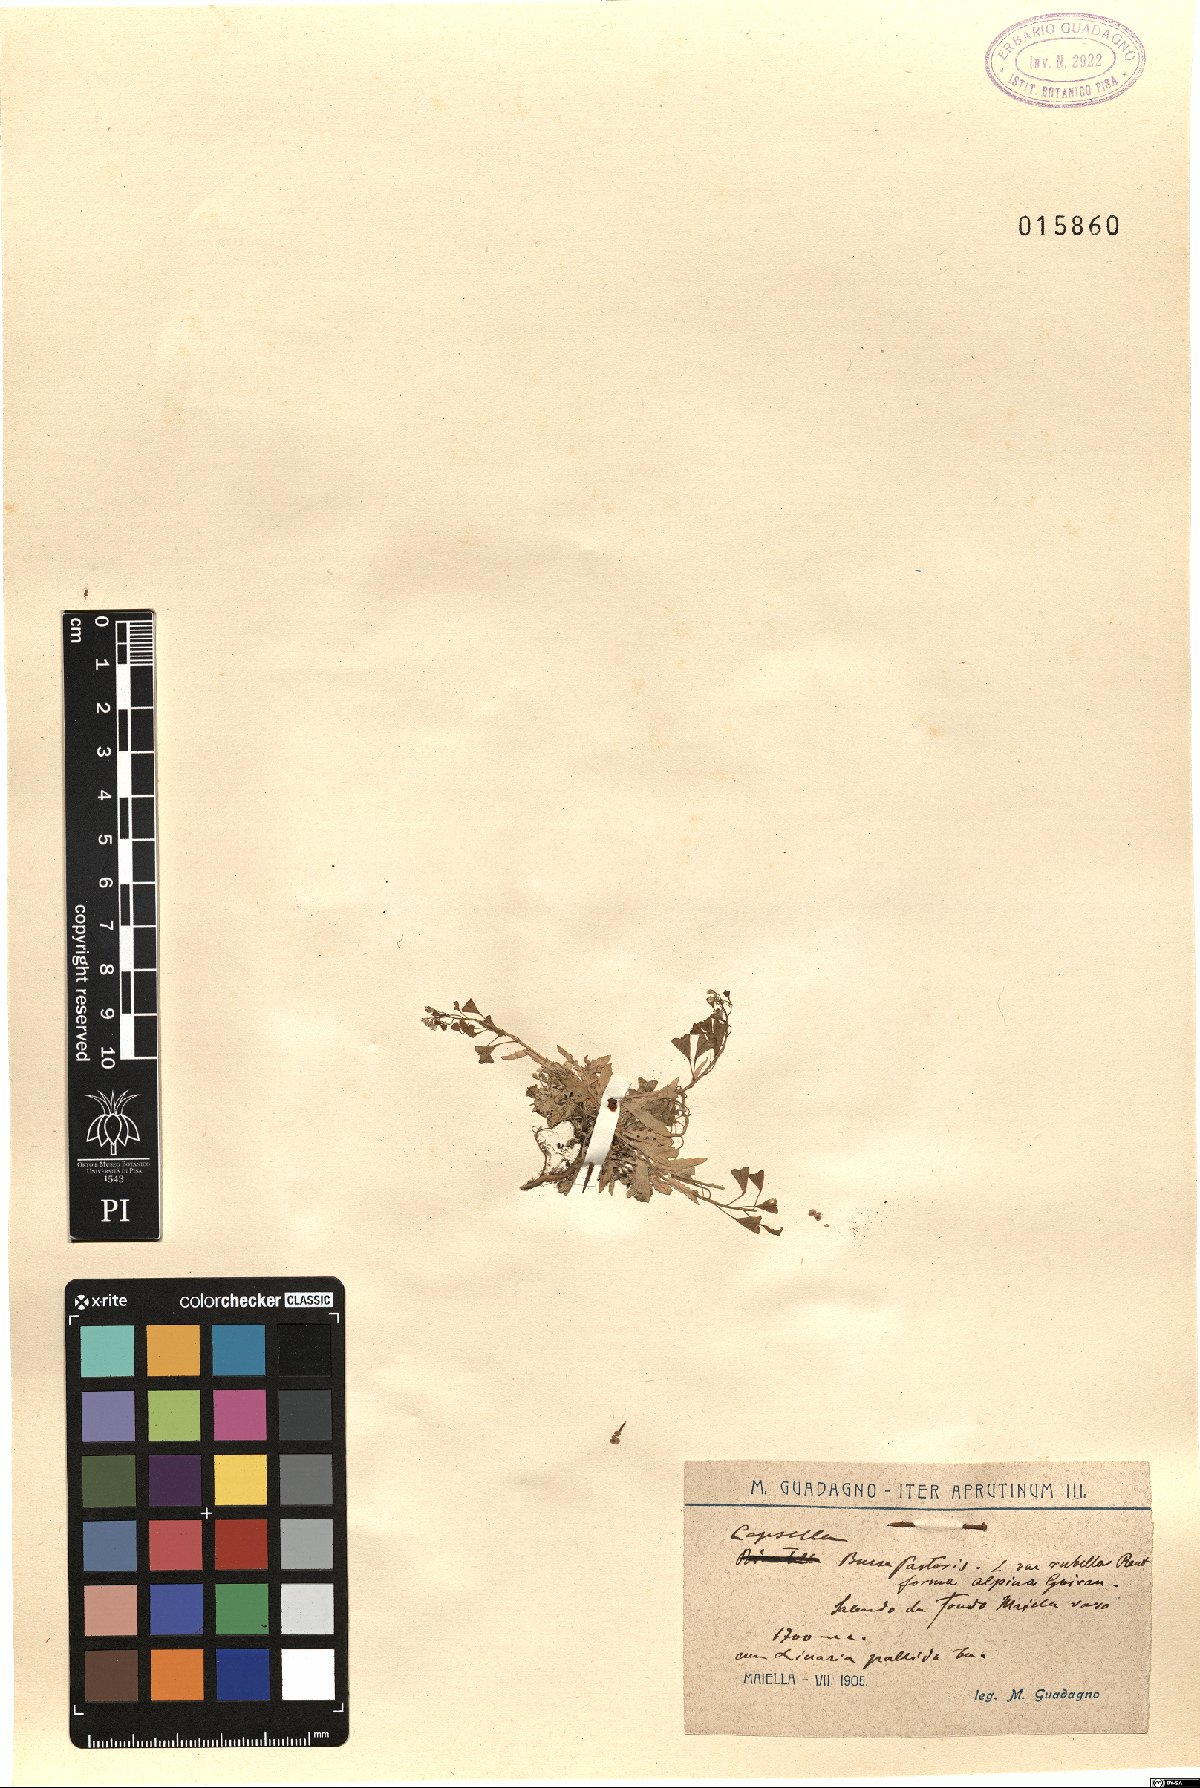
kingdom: Plantae
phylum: Tracheophyta
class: Magnoliopsida
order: Brassicales
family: Brassicaceae
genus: Capsella
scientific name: Capsella rubella
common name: Pink shepherd's-purse
